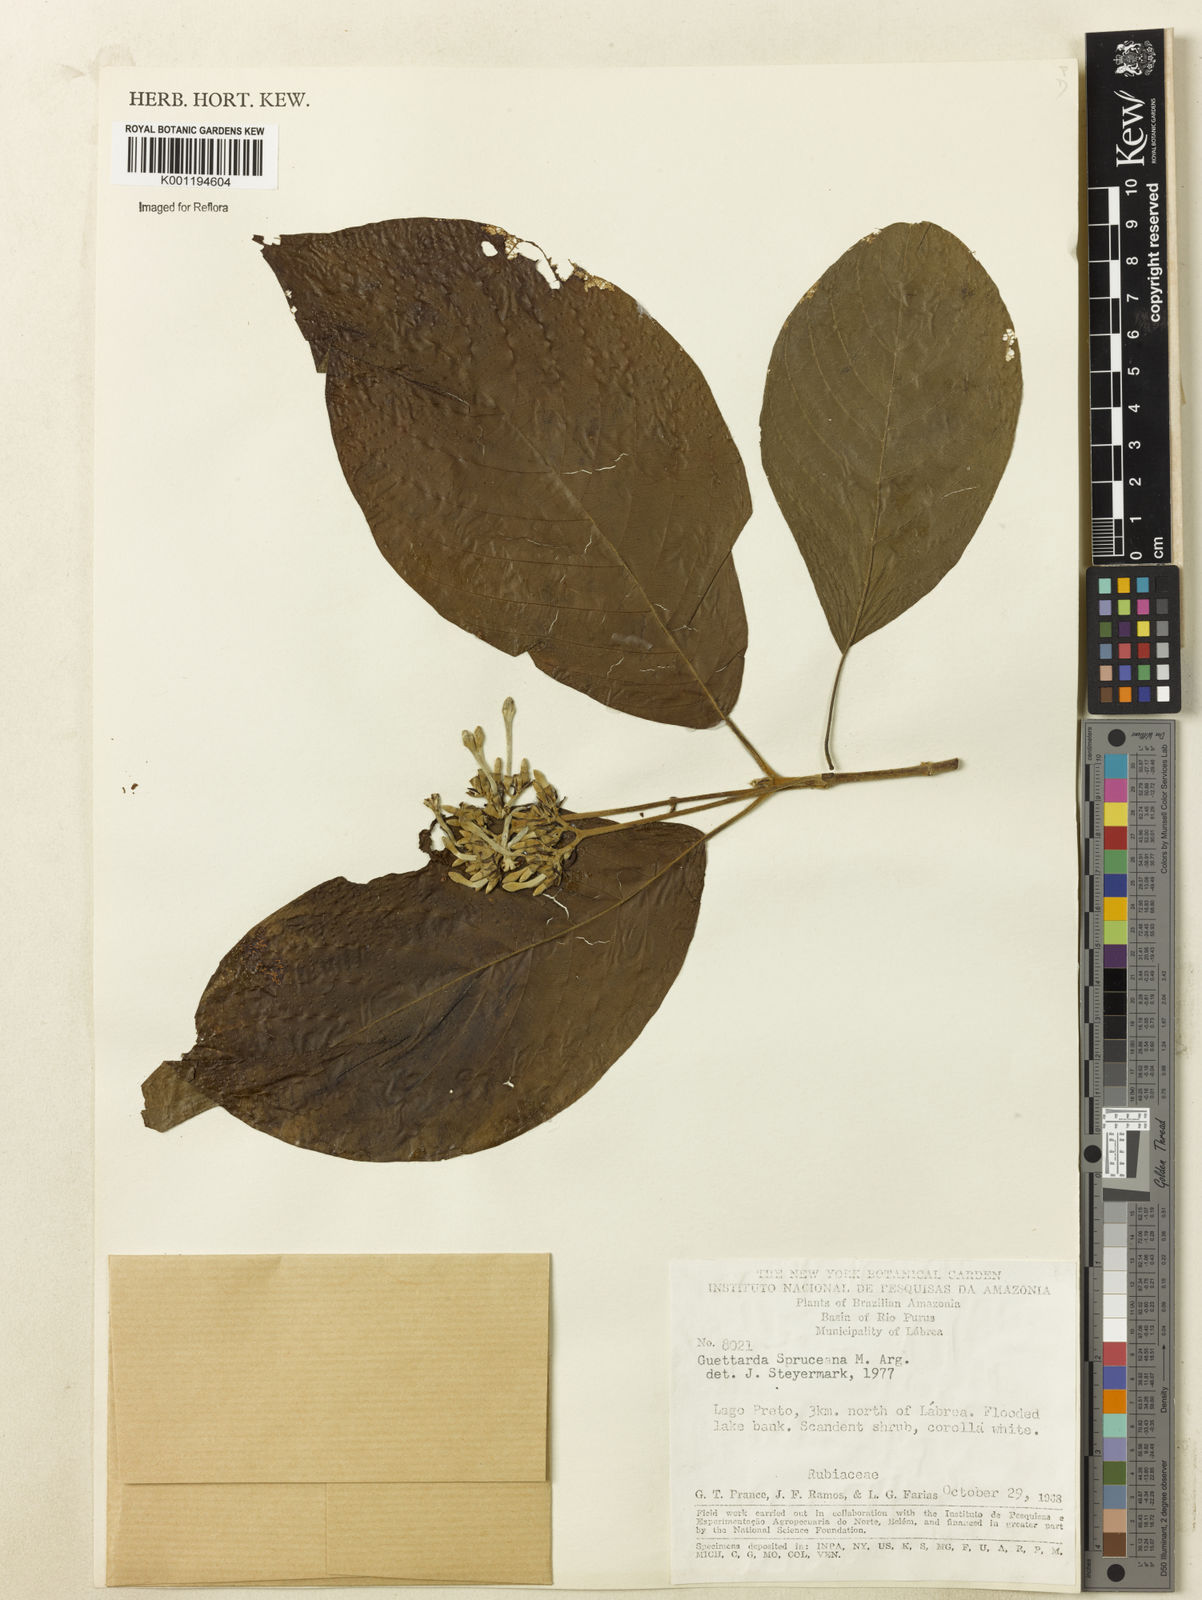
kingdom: Plantae
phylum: Tracheophyta
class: Magnoliopsida
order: Gentianales
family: Rubiaceae
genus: Guettarda
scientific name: Guettarda
